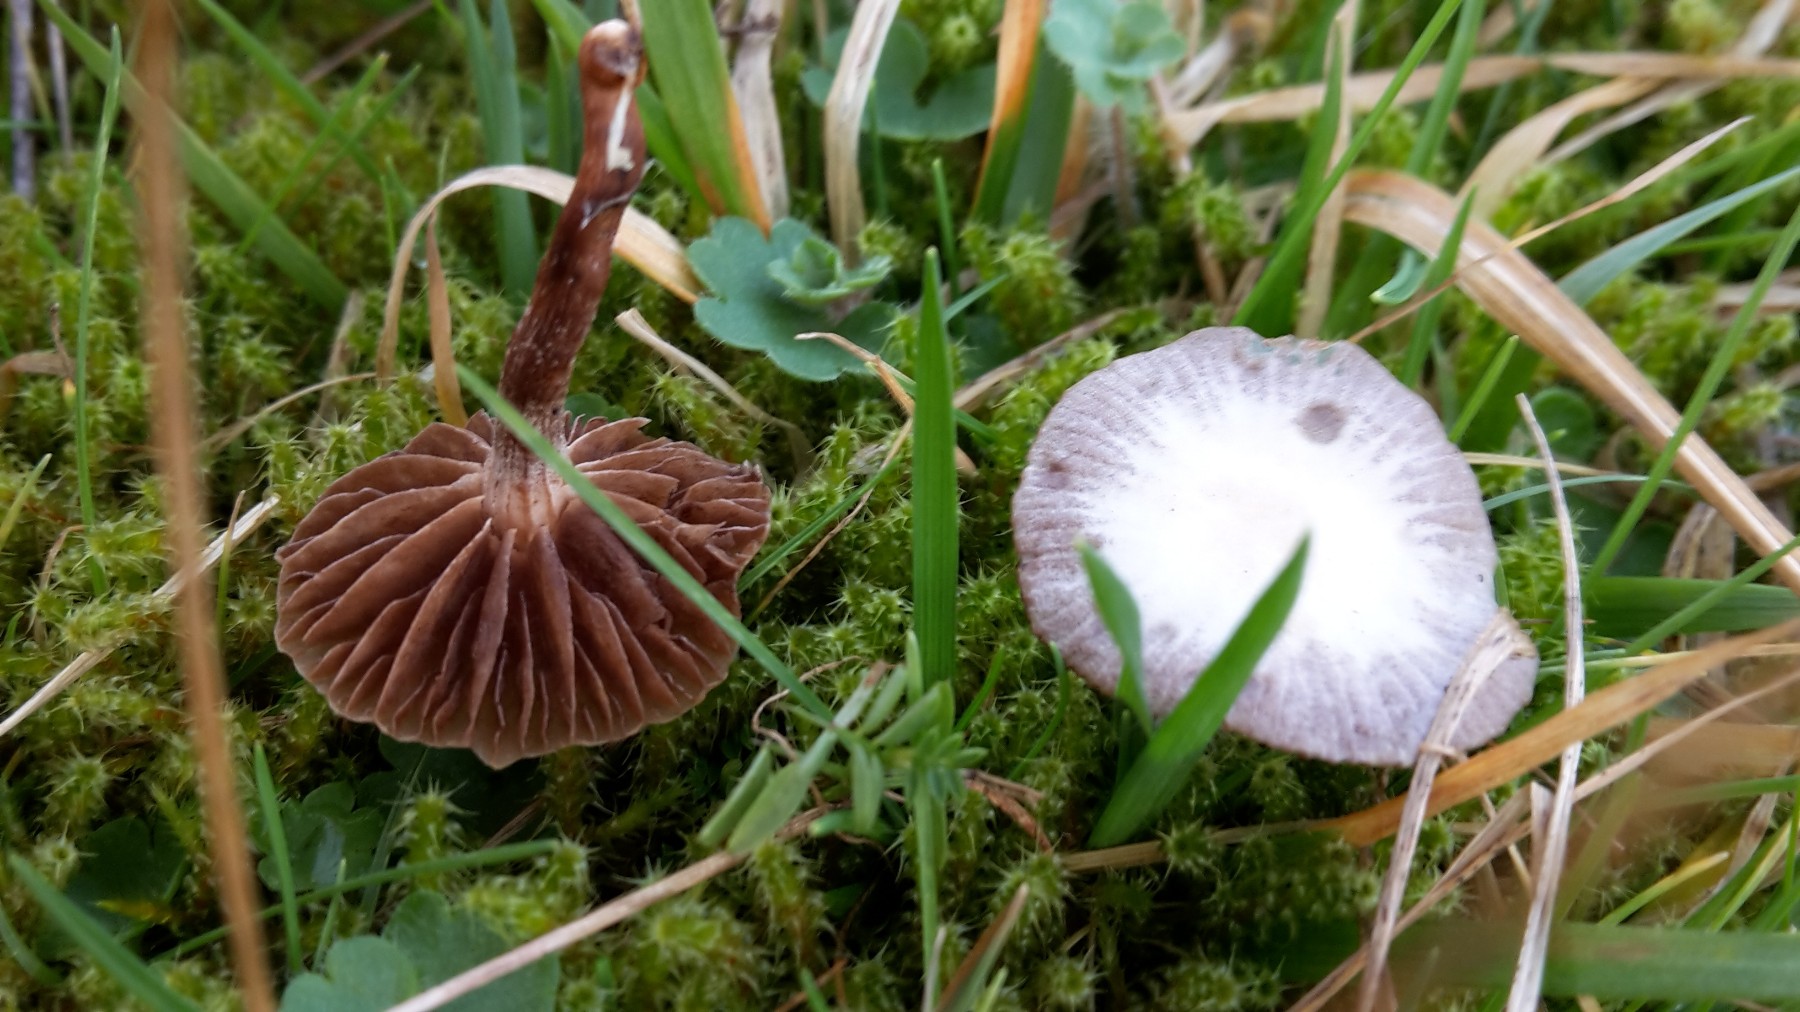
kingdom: Fungi
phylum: Basidiomycota
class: Agaricomycetes
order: Agaricales
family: Strophariaceae
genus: Deconica
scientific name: Deconica montana
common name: rødbrun stråhat
